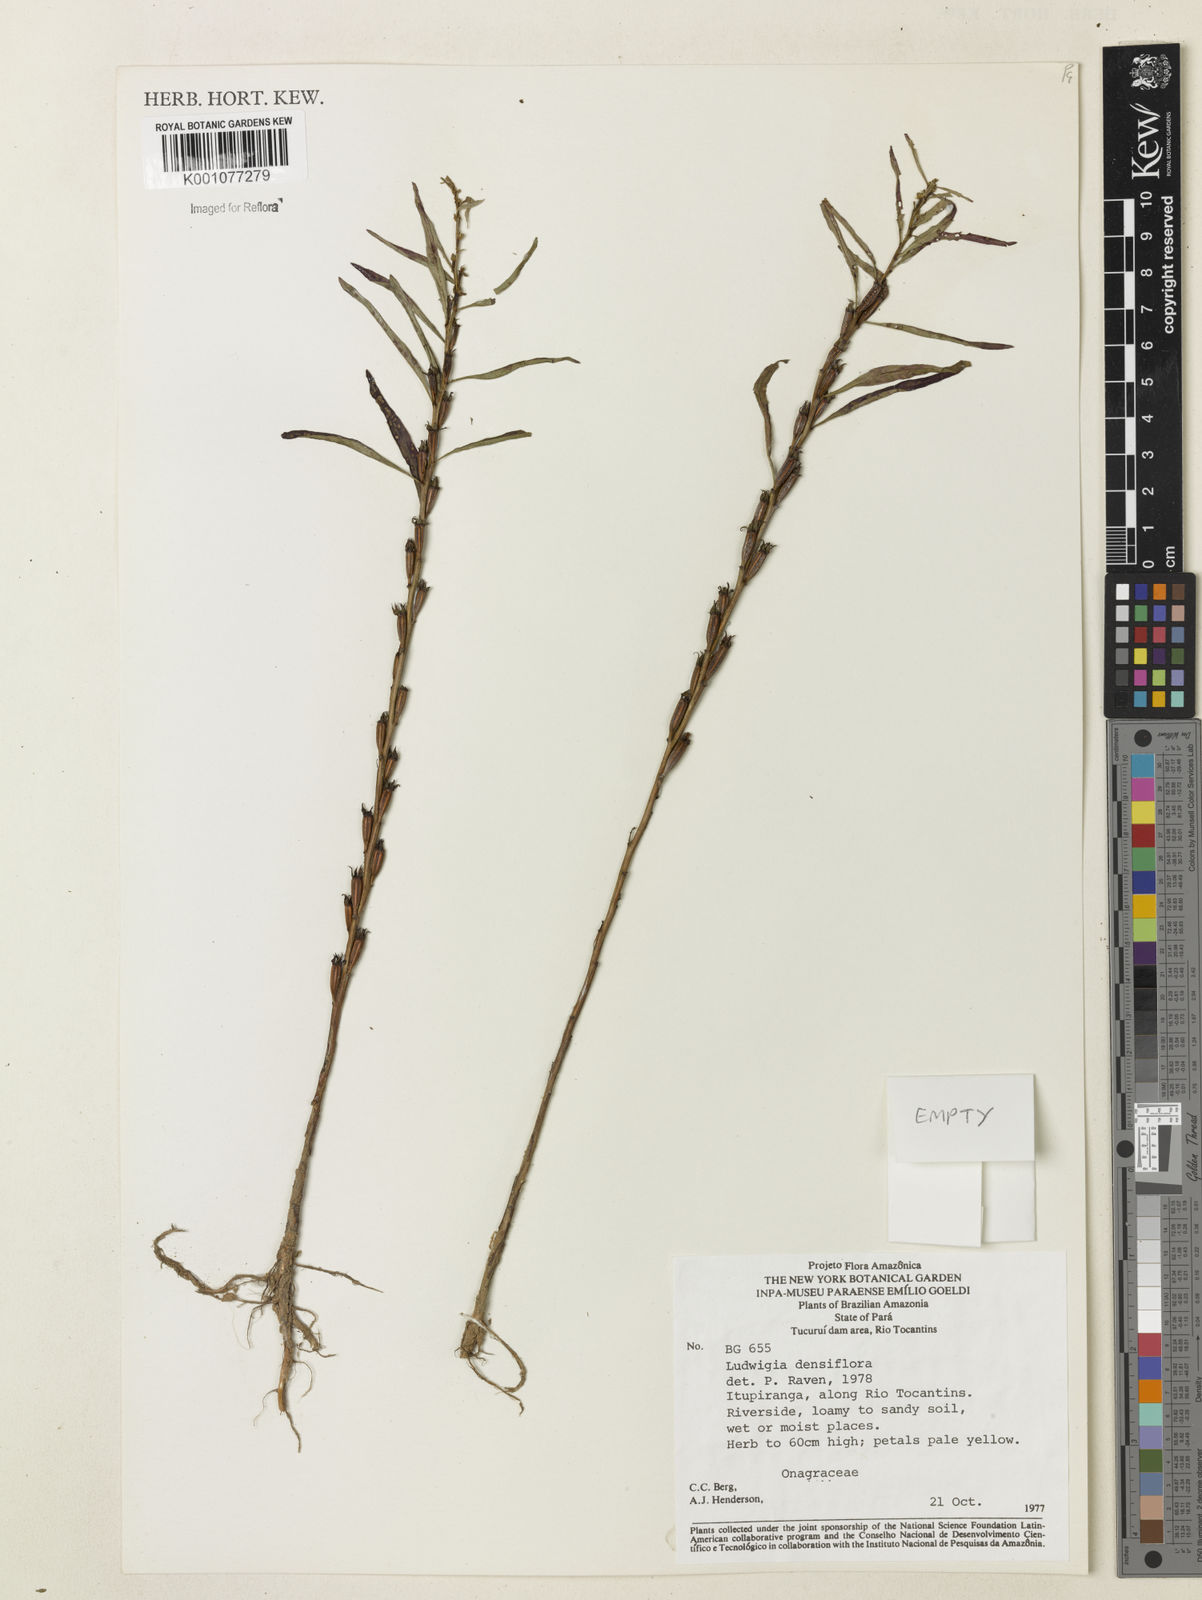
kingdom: Plantae
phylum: Tracheophyta
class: Magnoliopsida
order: Myrtales
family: Onagraceae
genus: Ludwigia
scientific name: Ludwigia densiflora
